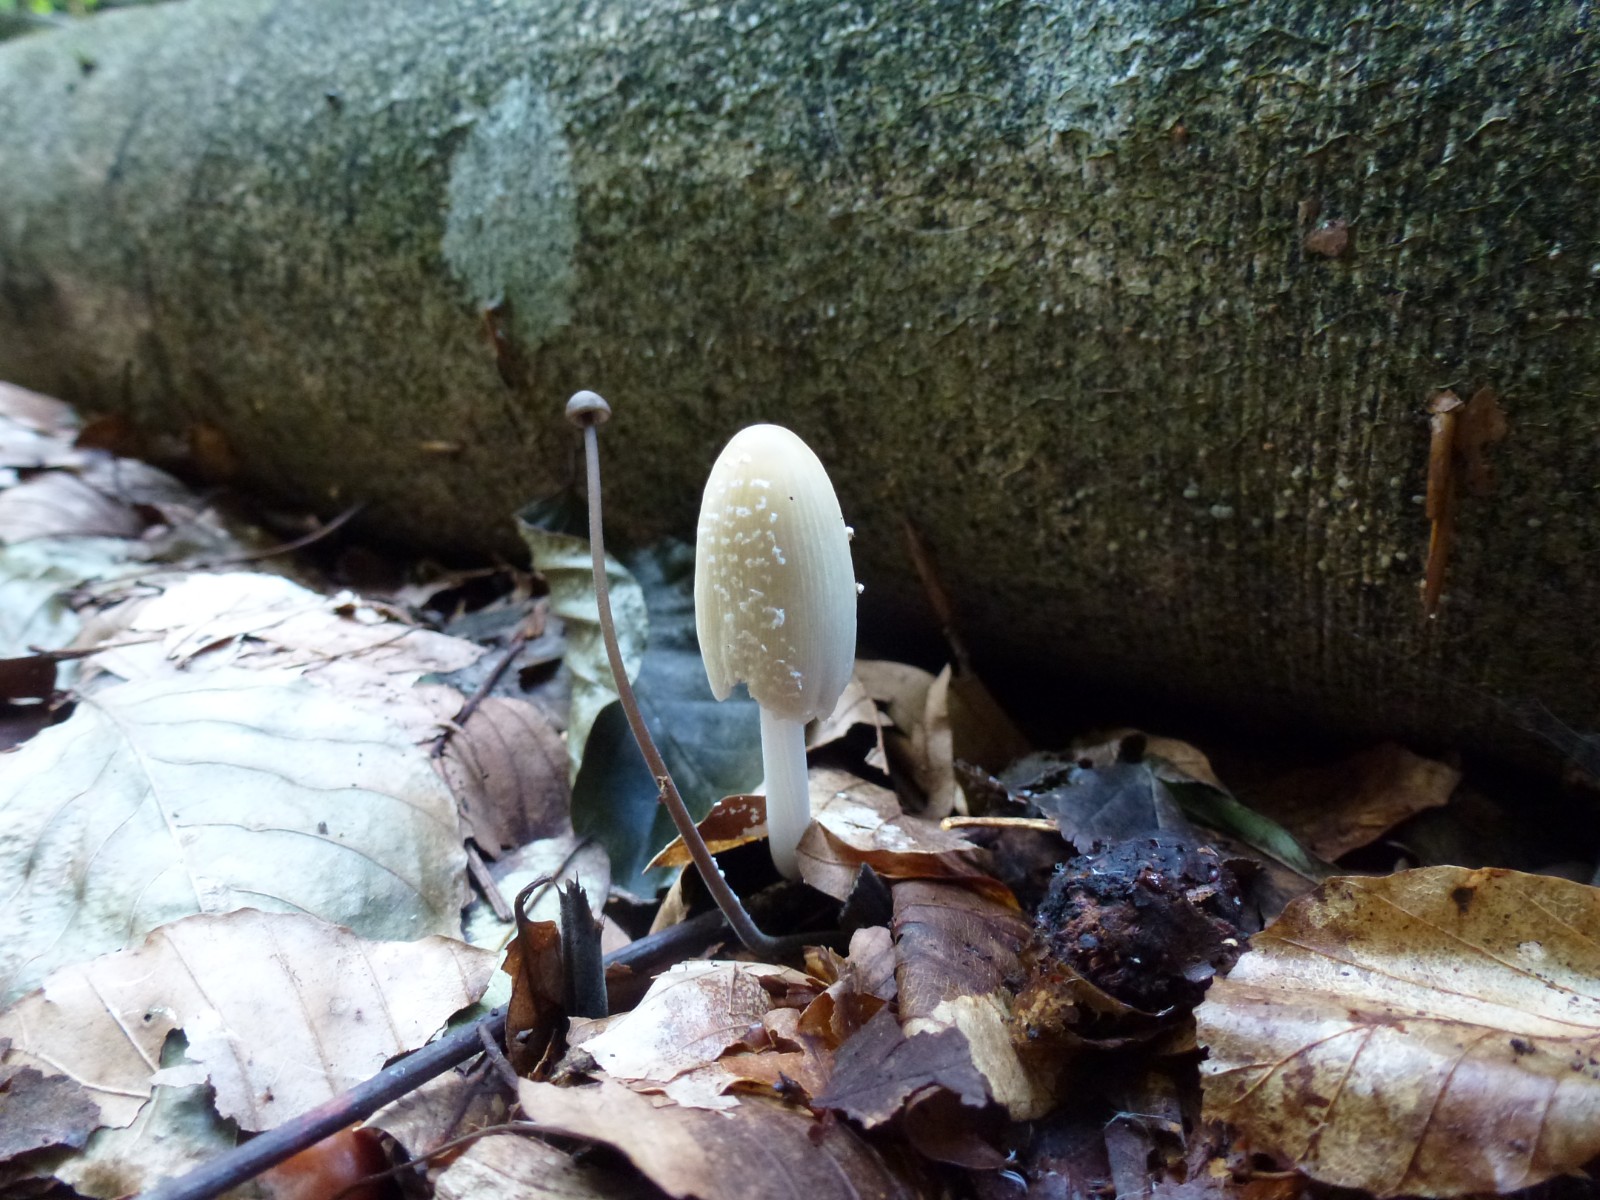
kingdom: Fungi
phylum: Basidiomycota
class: Agaricomycetes
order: Agaricales
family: Psathyrellaceae
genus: Coprinellus
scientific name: Coprinellus
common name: blækhat
